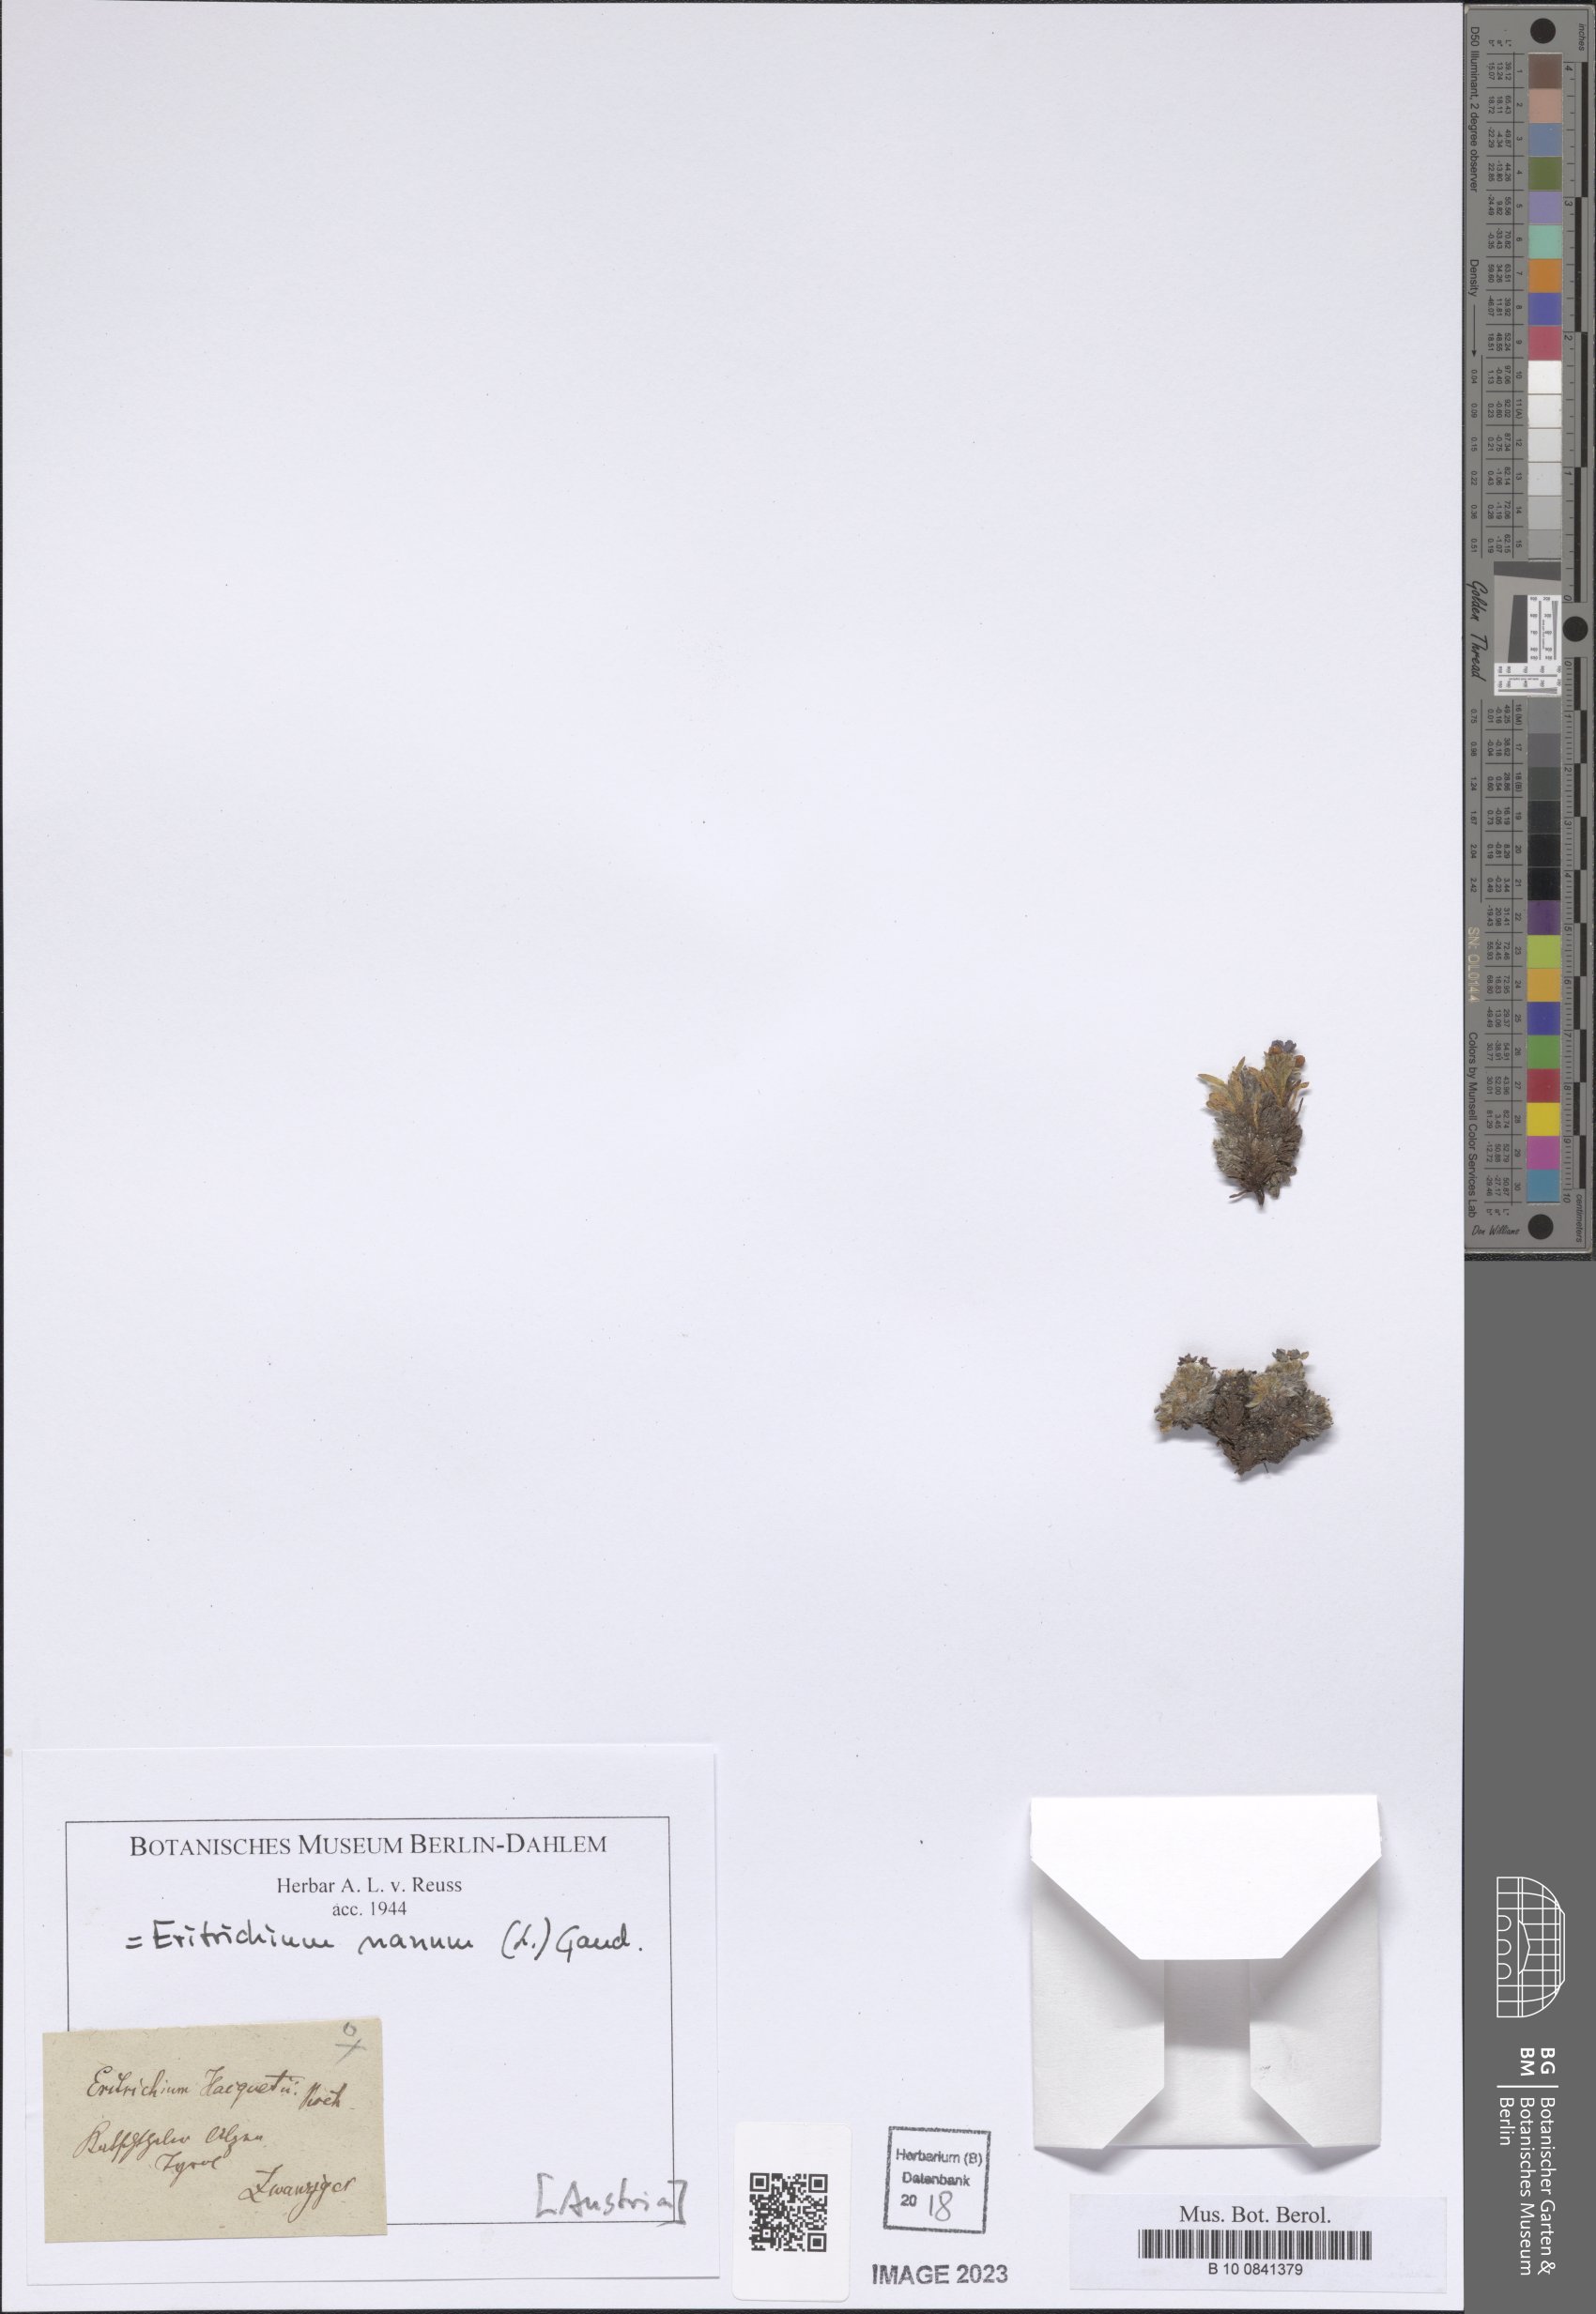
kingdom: Plantae
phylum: Tracheophyta
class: Magnoliopsida
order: Boraginales
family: Boraginaceae
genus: Eritrichium
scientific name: Eritrichium nanum
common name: King-of-the-alps
